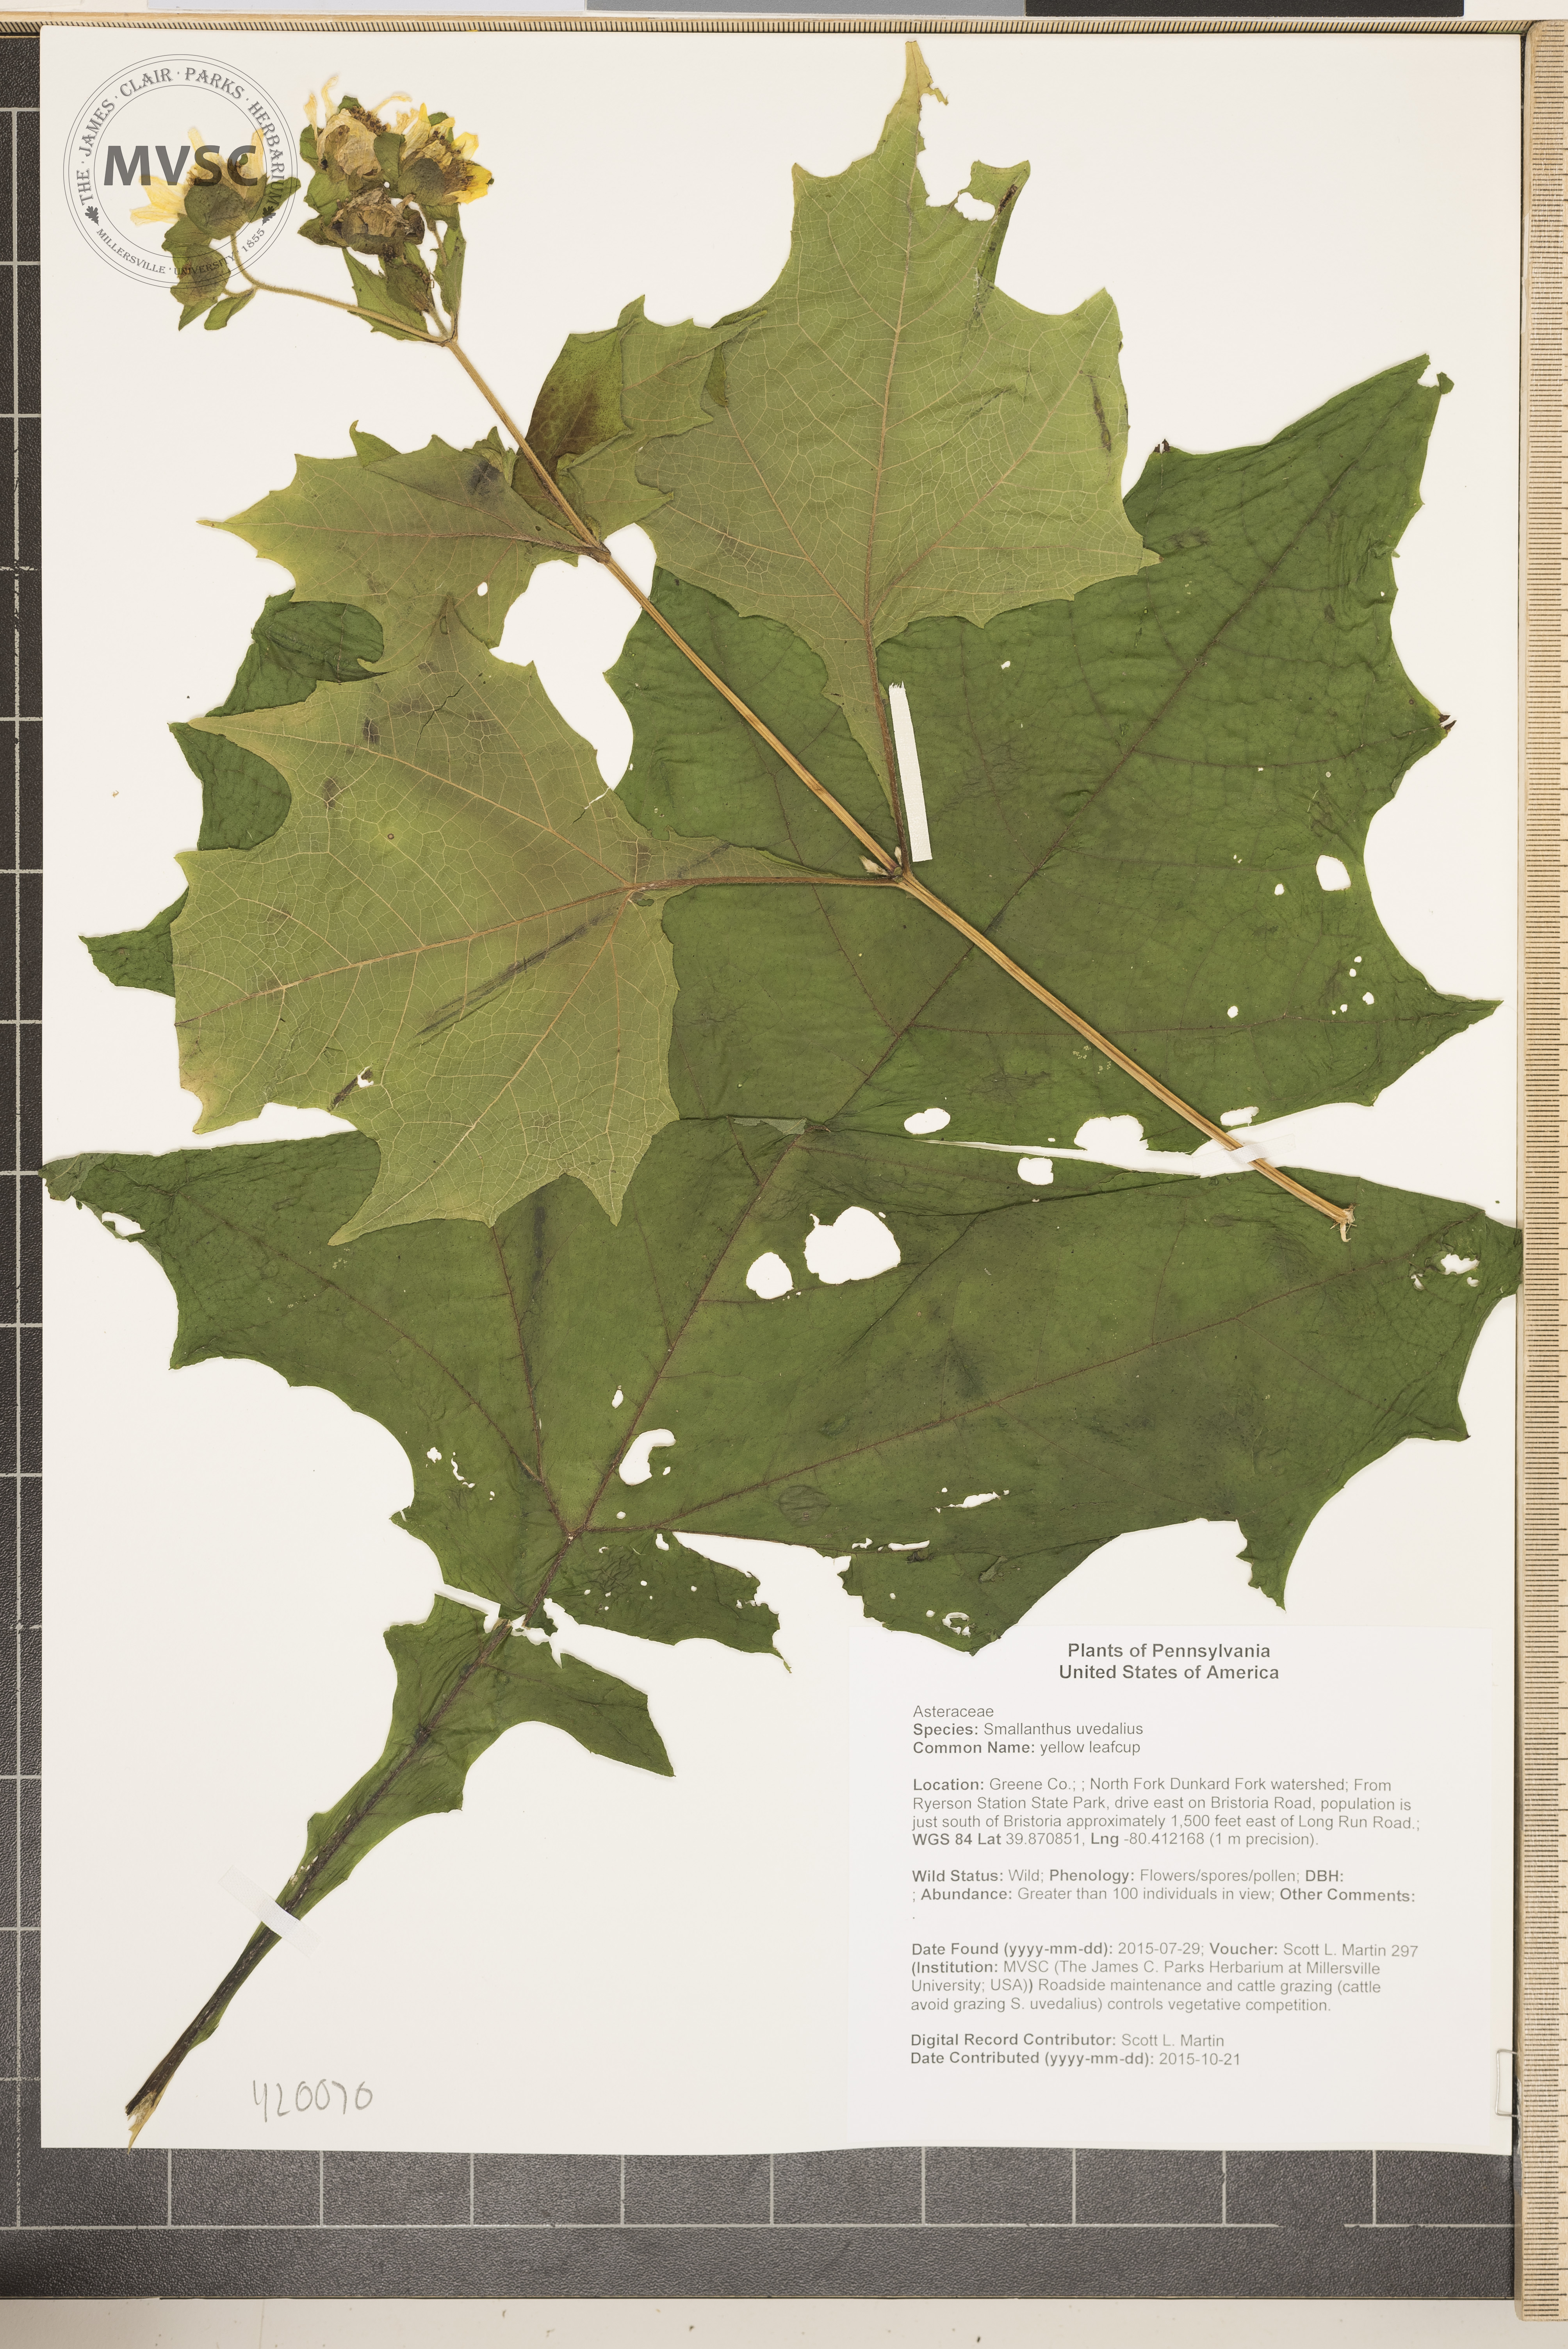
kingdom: Plantae
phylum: Tracheophyta
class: Magnoliopsida
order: Asterales
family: Asteraceae
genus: Smallanthus
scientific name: Smallanthus uvedalia
